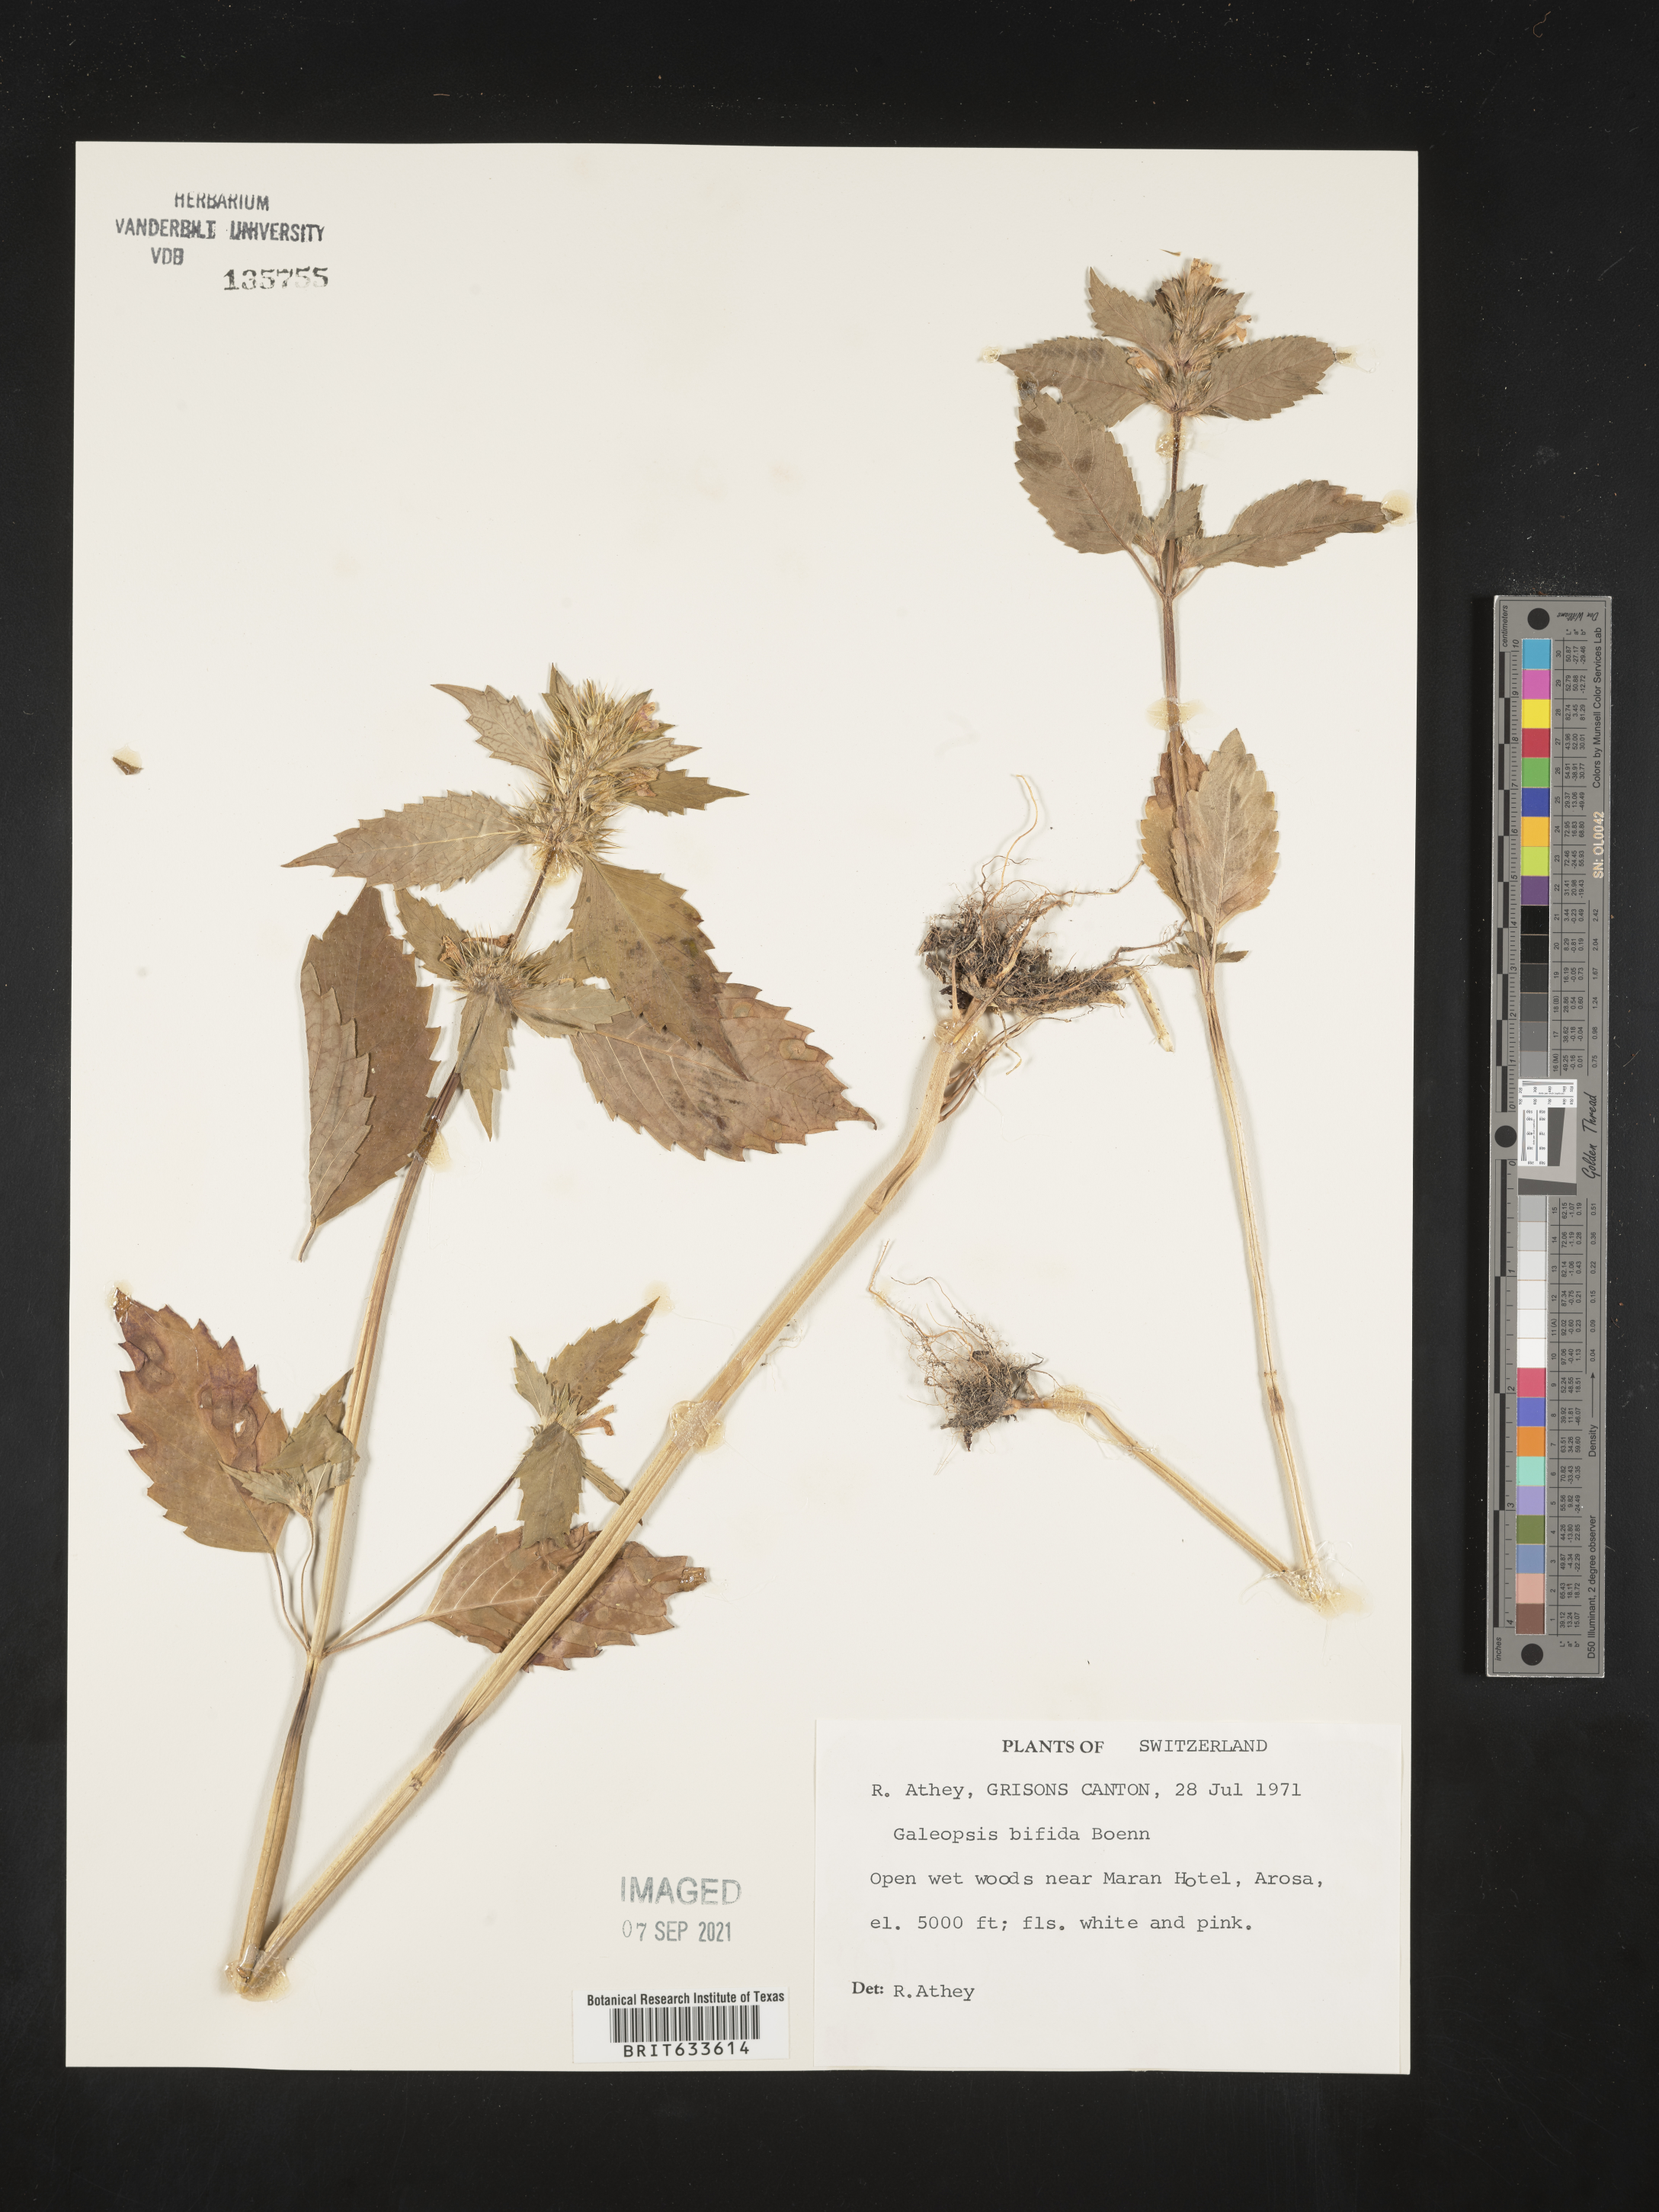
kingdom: Plantae
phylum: Tracheophyta
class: Magnoliopsida
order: Lamiales
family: Lamiaceae
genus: Galeopsis
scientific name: Galeopsis
